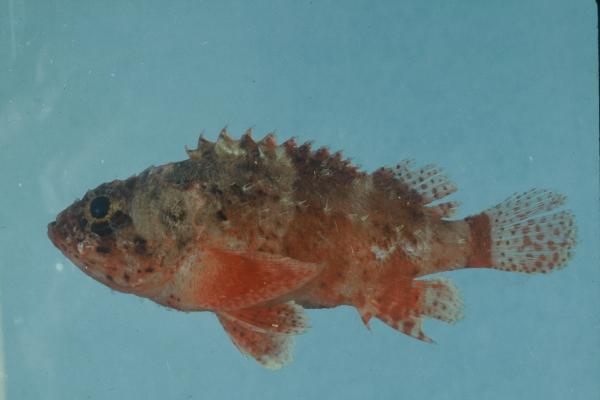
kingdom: Animalia
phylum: Chordata
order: Scorpaeniformes
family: Scorpaenidae
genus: Scorpaenodes
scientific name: Scorpaenodes parvipinnis
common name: Coral scorpionfish
